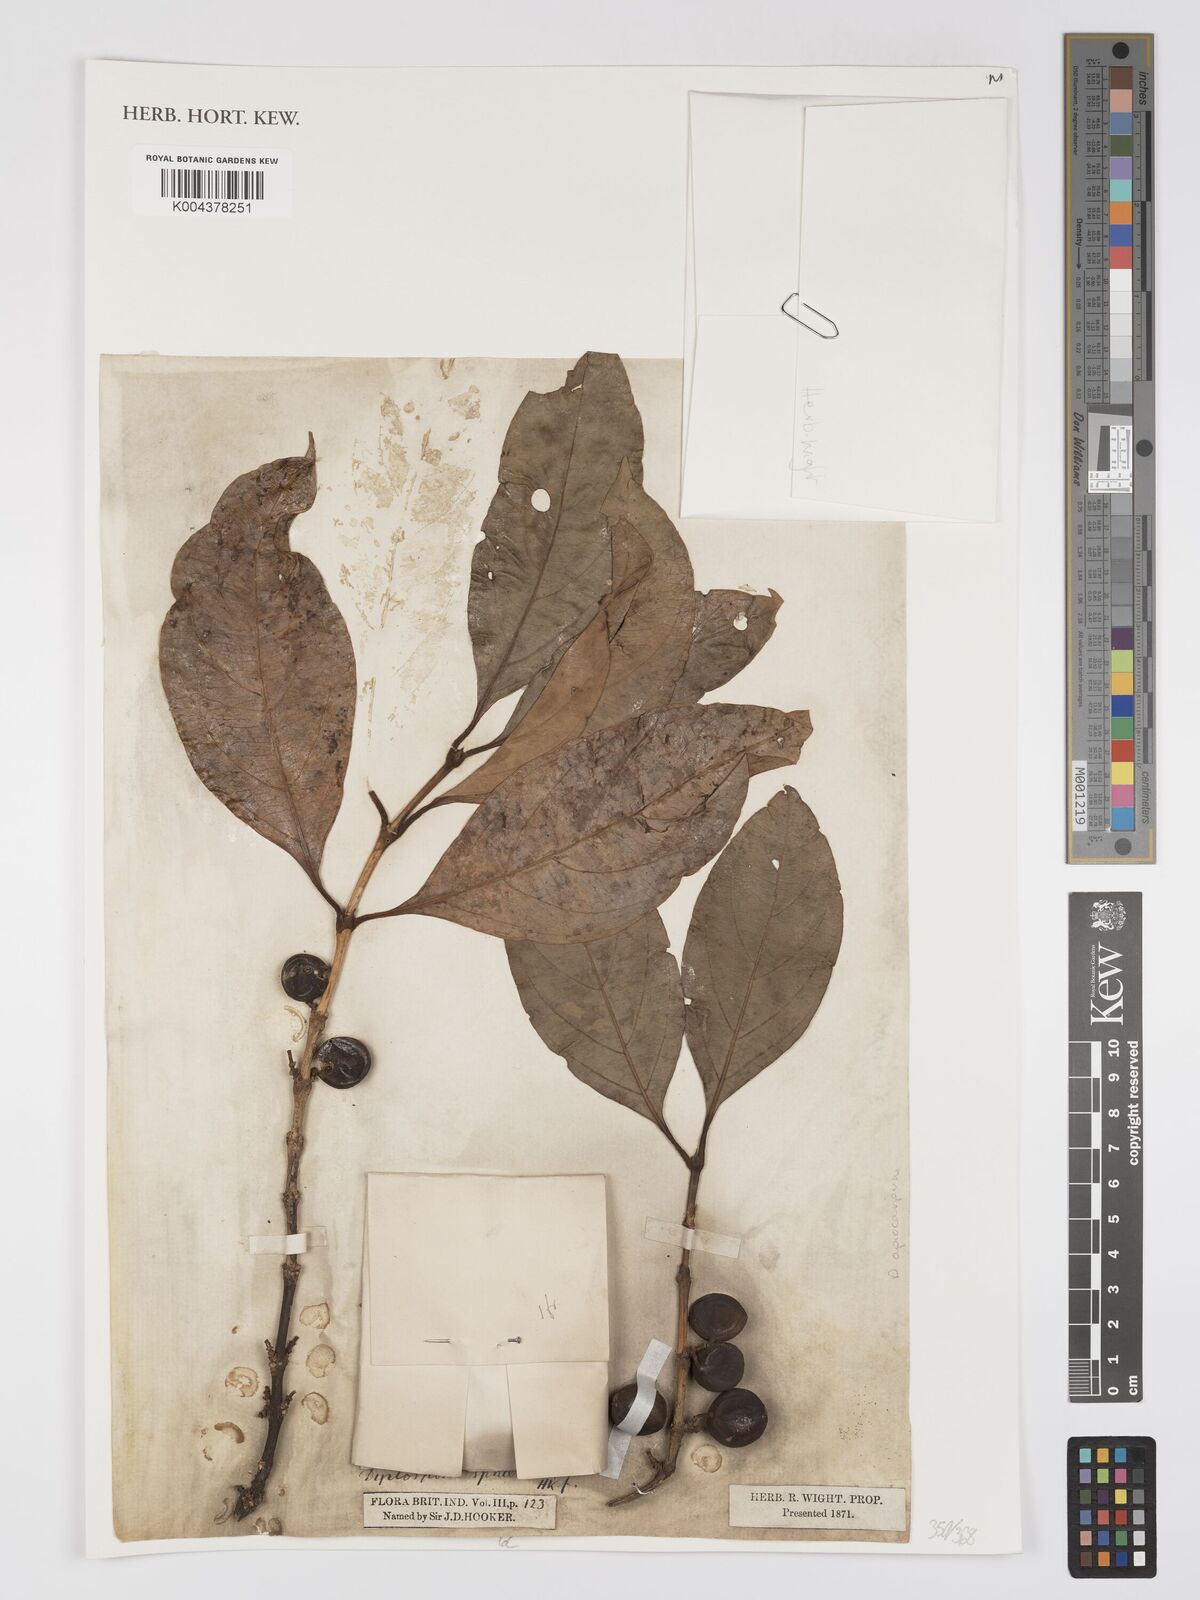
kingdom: Plantae
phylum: Tracheophyta
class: Magnoliopsida
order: Gentianales
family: Rubiaceae
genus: Discospermum
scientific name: Discospermum sphaerocarpum
